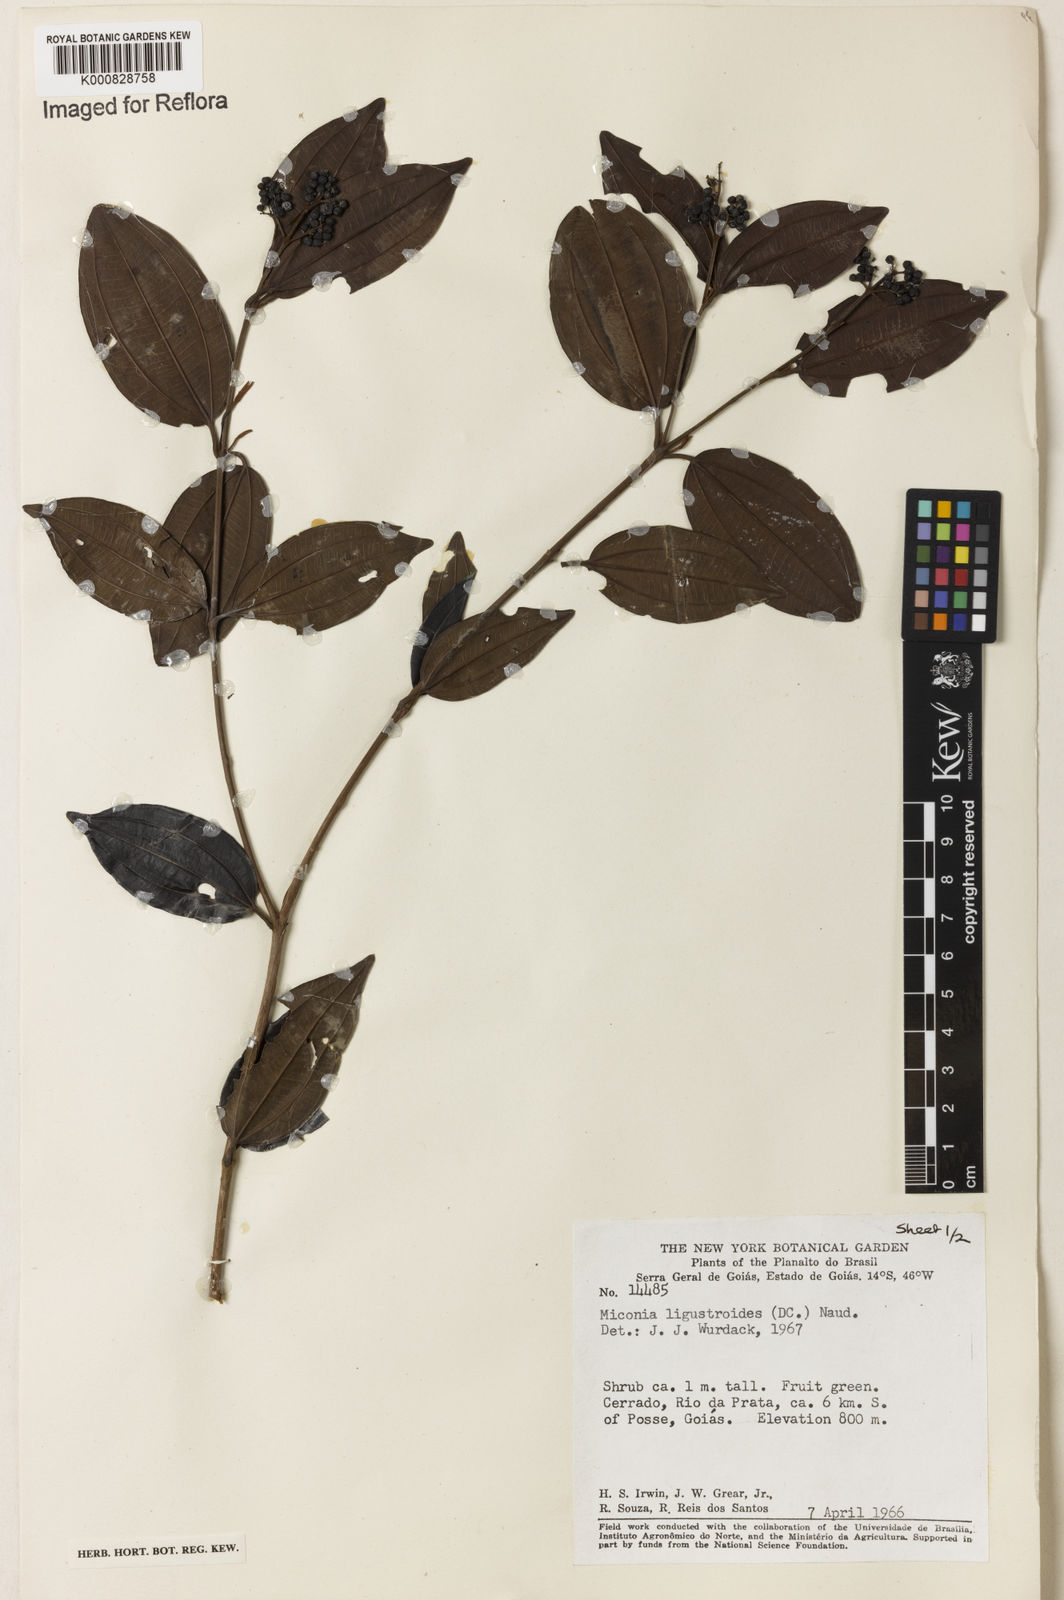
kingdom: Plantae
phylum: Tracheophyta
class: Magnoliopsida
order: Myrtales
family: Melastomataceae
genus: Miconia
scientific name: Miconia ligustroides
